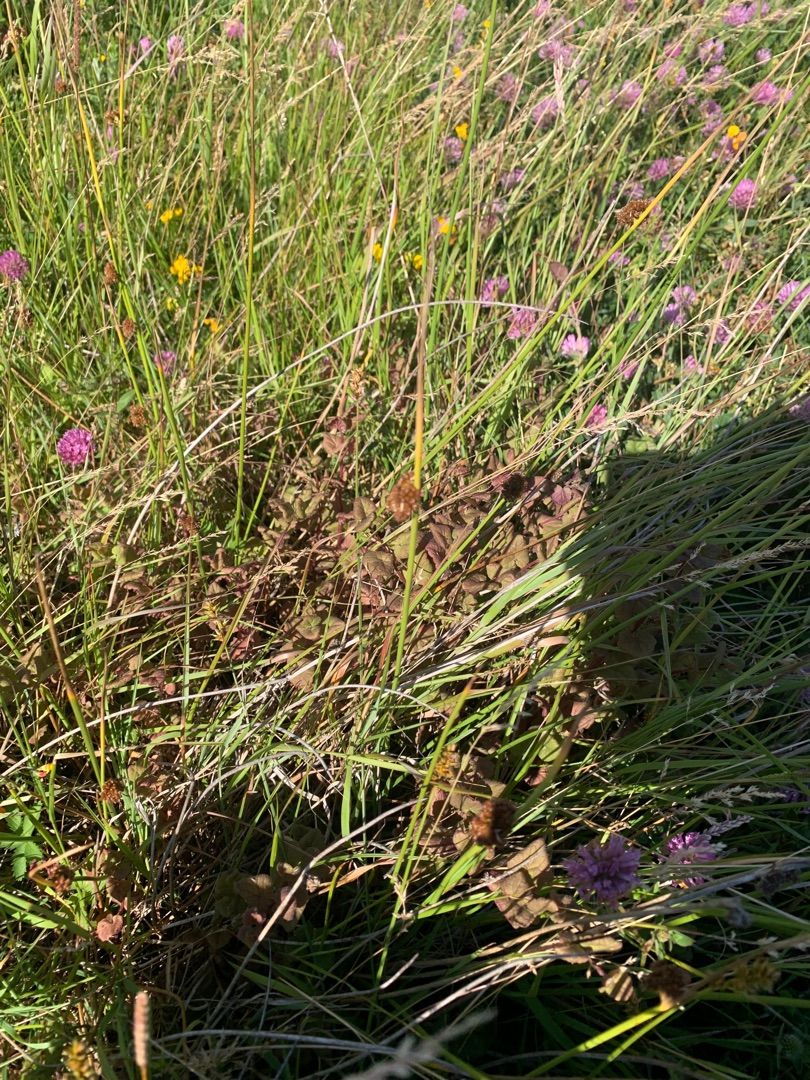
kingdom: Plantae
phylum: Tracheophyta
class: Magnoliopsida
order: Lamiales
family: Lamiaceae
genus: Glechoma
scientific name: Glechoma hederacea
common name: Korsknap
